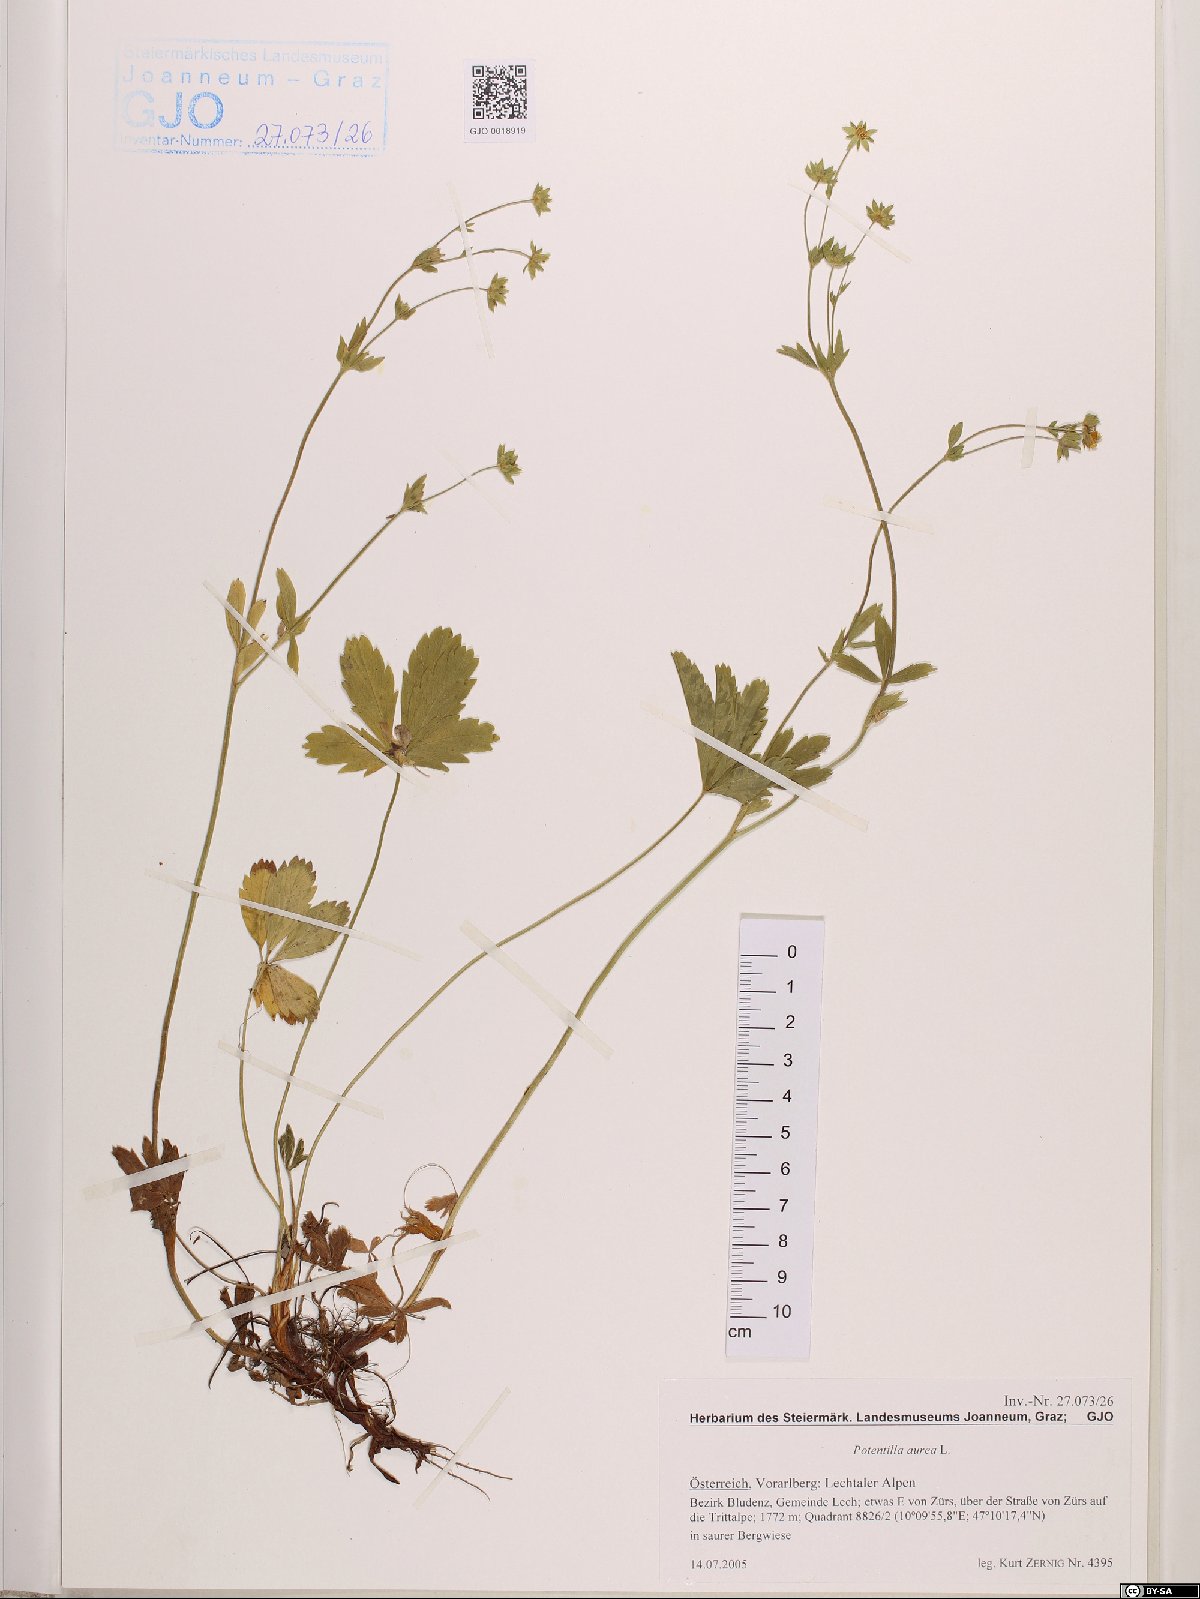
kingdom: Plantae
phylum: Tracheophyta
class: Magnoliopsida
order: Rosales
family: Rosaceae
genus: Potentilla
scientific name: Potentilla aurea
